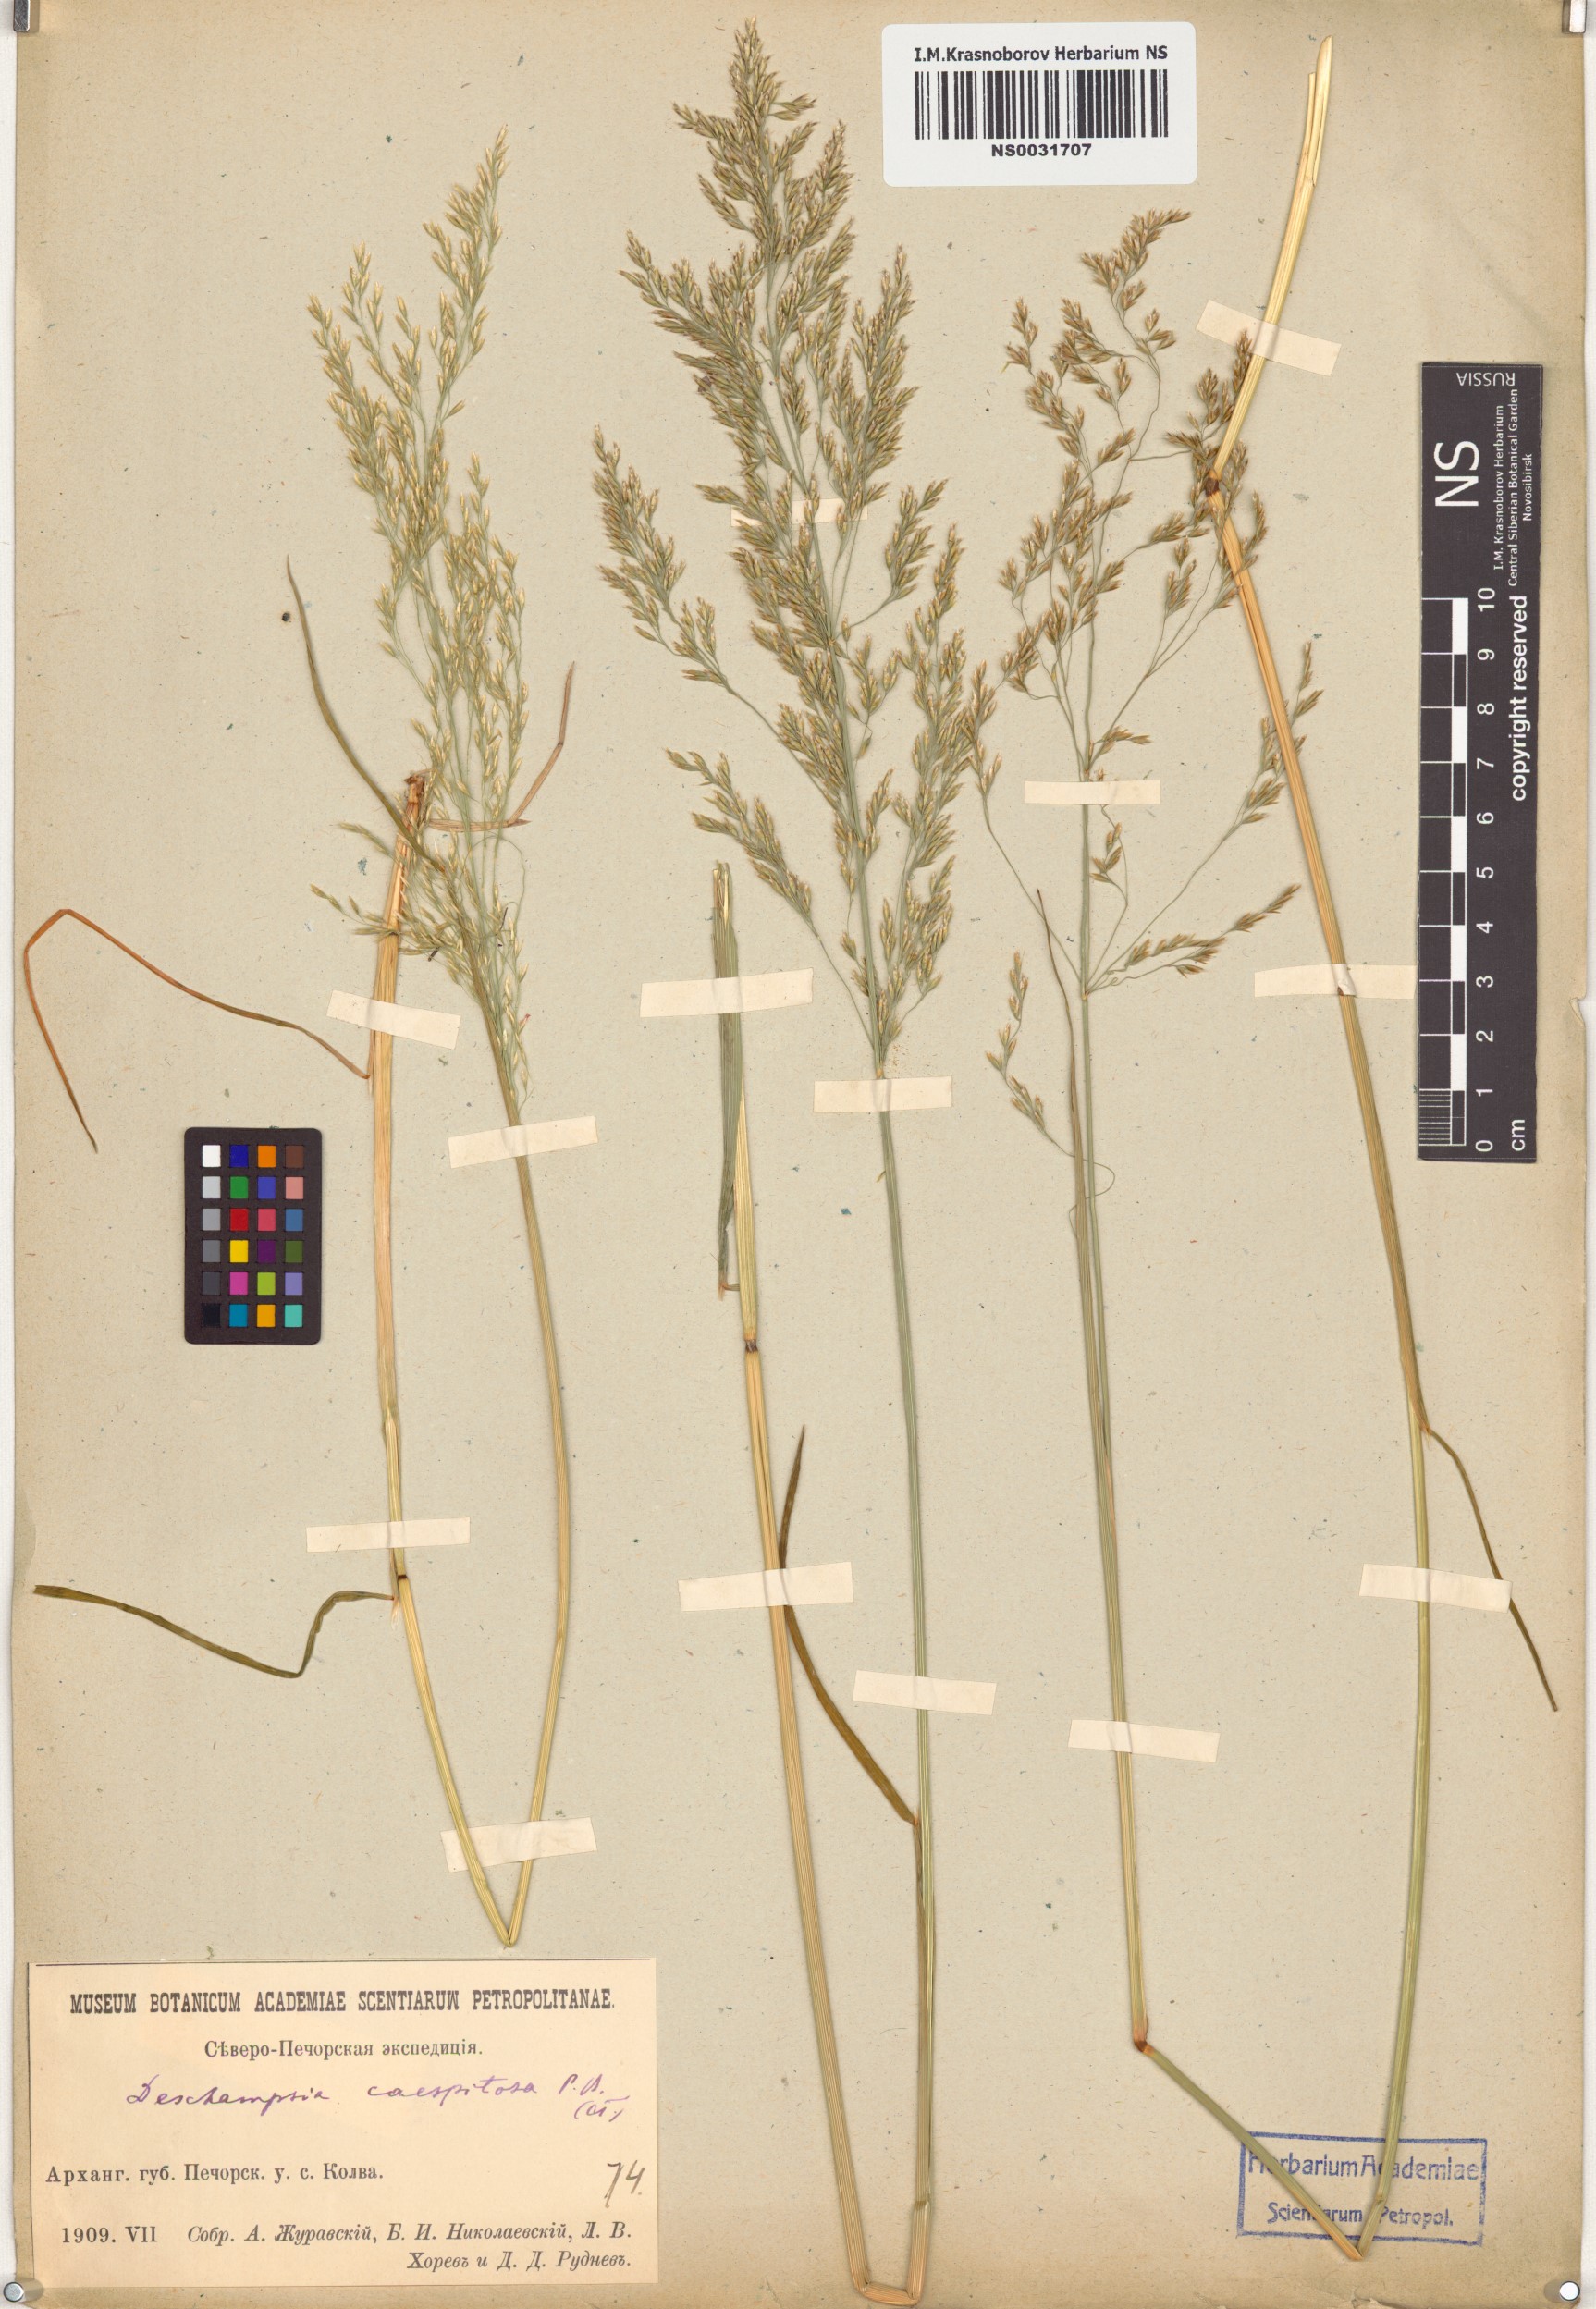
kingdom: Plantae
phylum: Tracheophyta
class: Liliopsida
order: Poales
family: Poaceae
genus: Deschampsia
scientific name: Deschampsia cespitosa
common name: Tufted hair-grass
